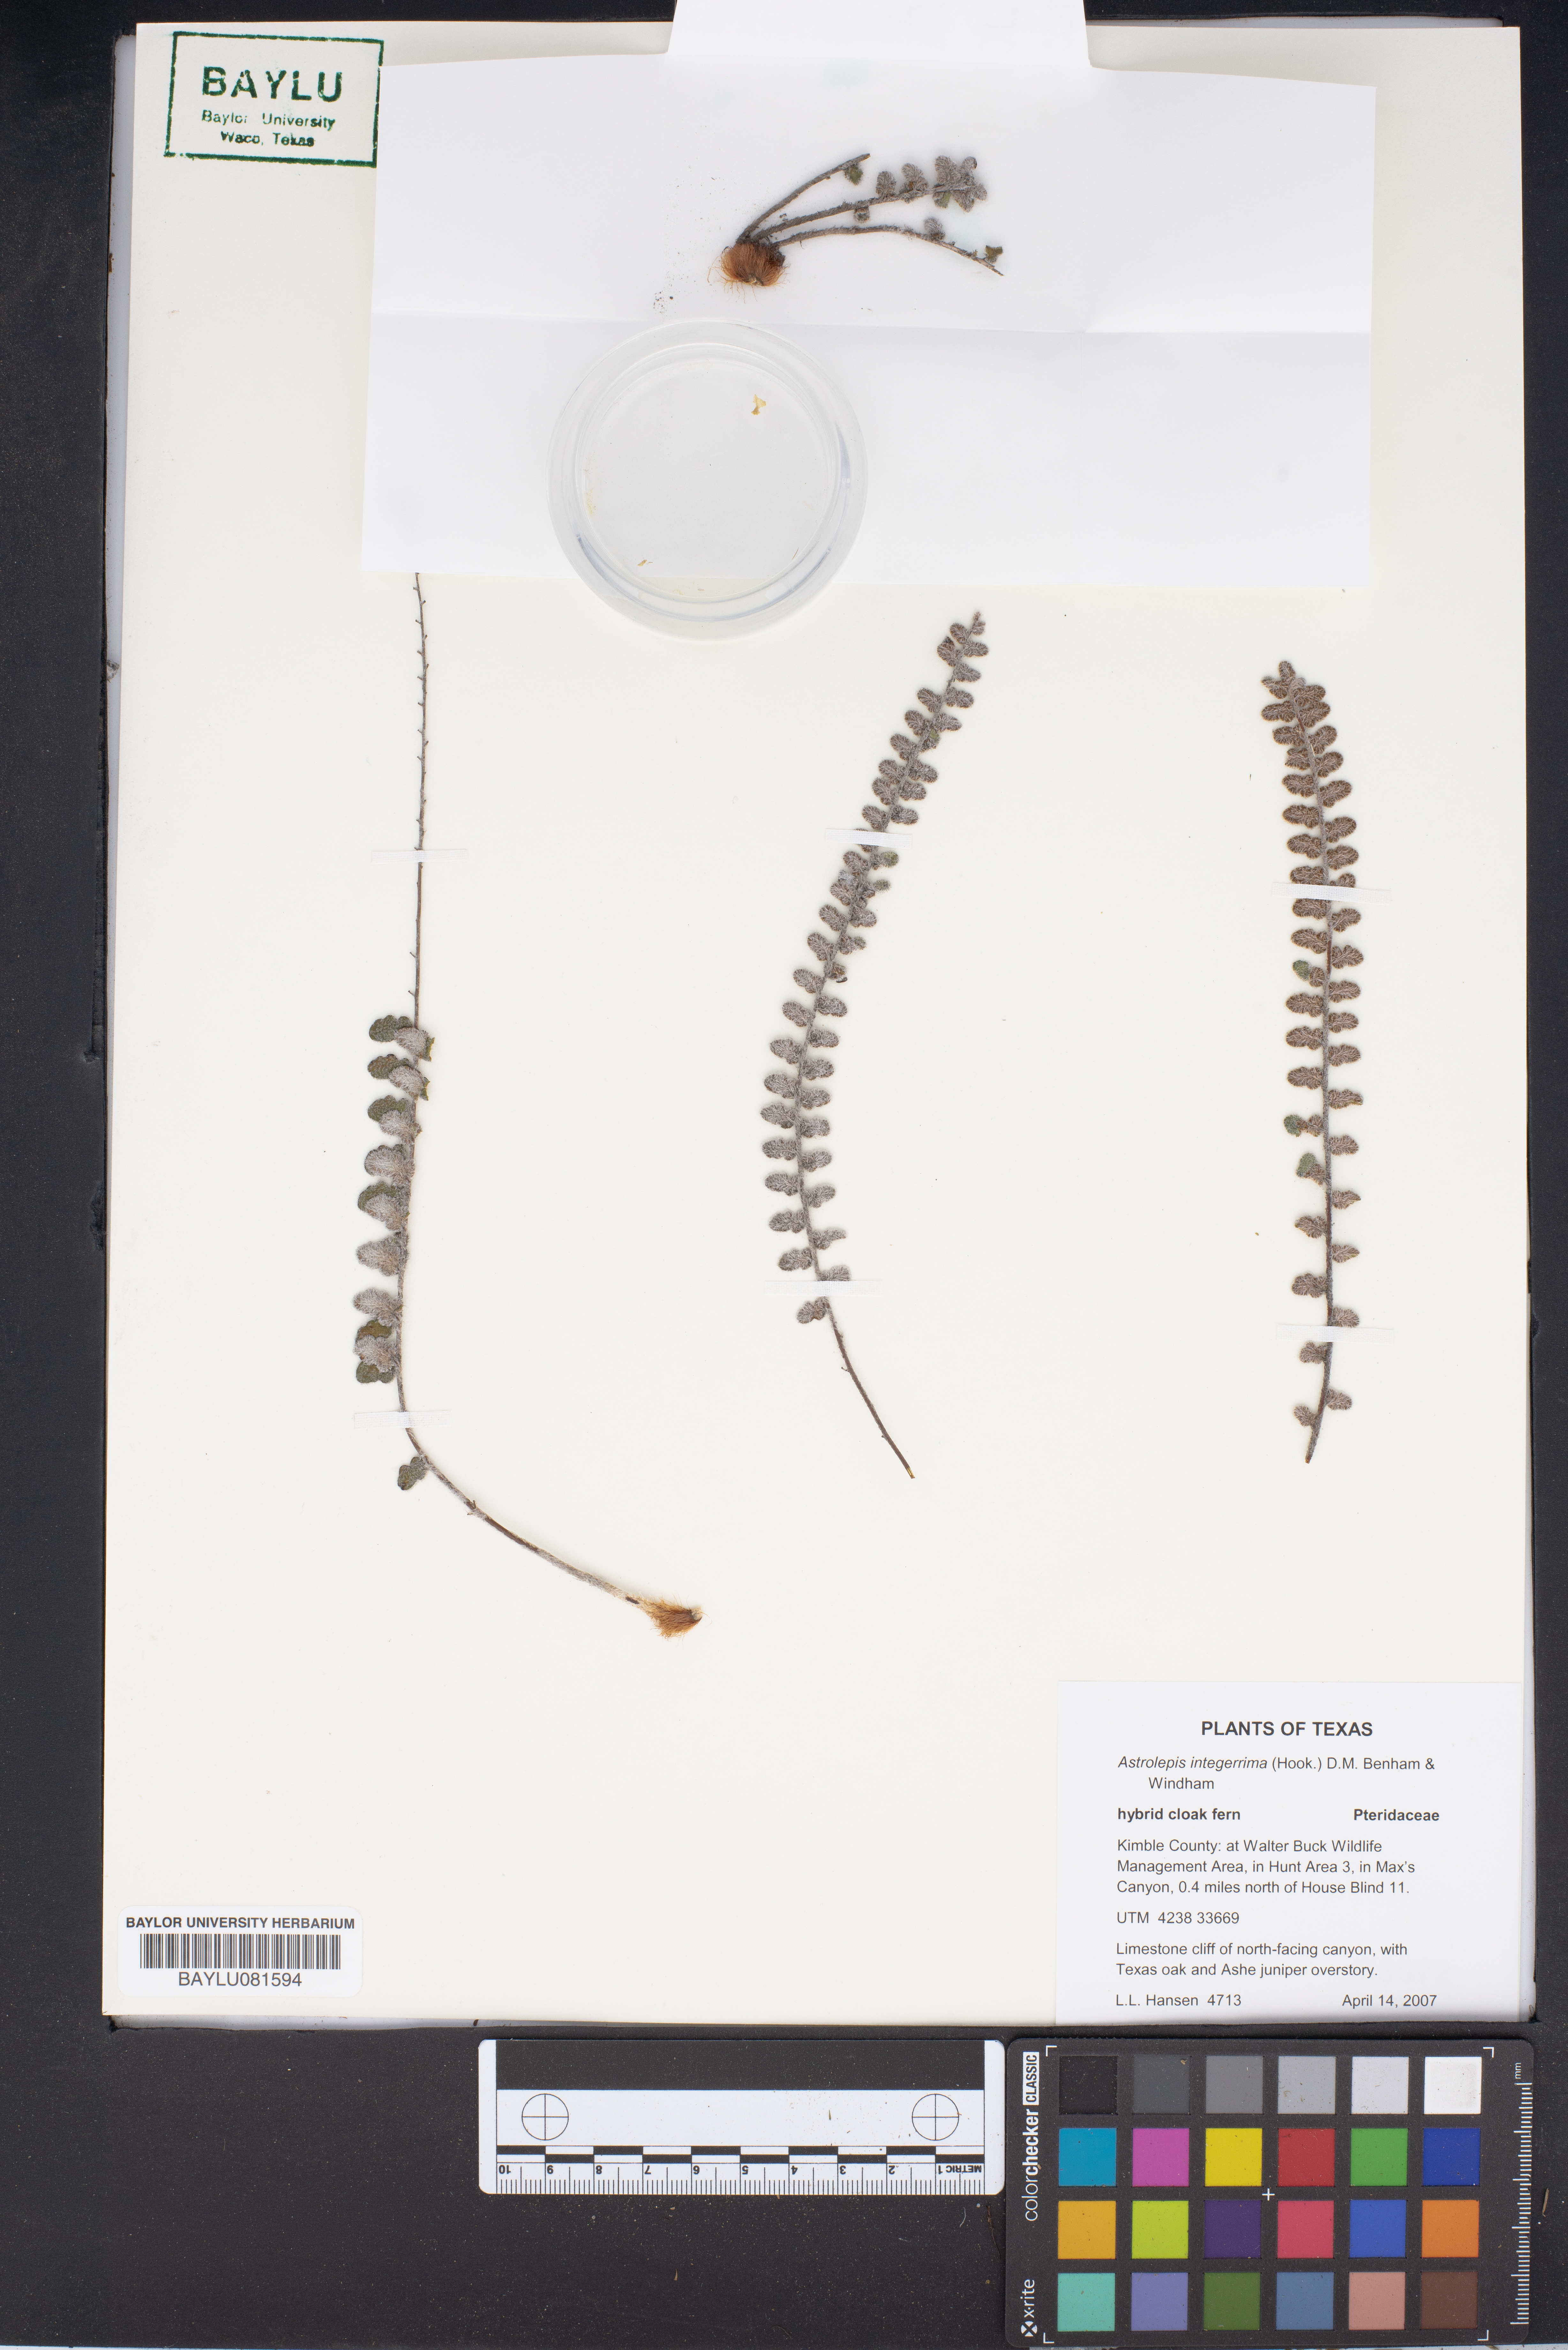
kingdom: Plantae
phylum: Tracheophyta
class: Polypodiopsida
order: Polypodiales
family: Pteridaceae
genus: Astrolepis
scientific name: Astrolepis integerrima
